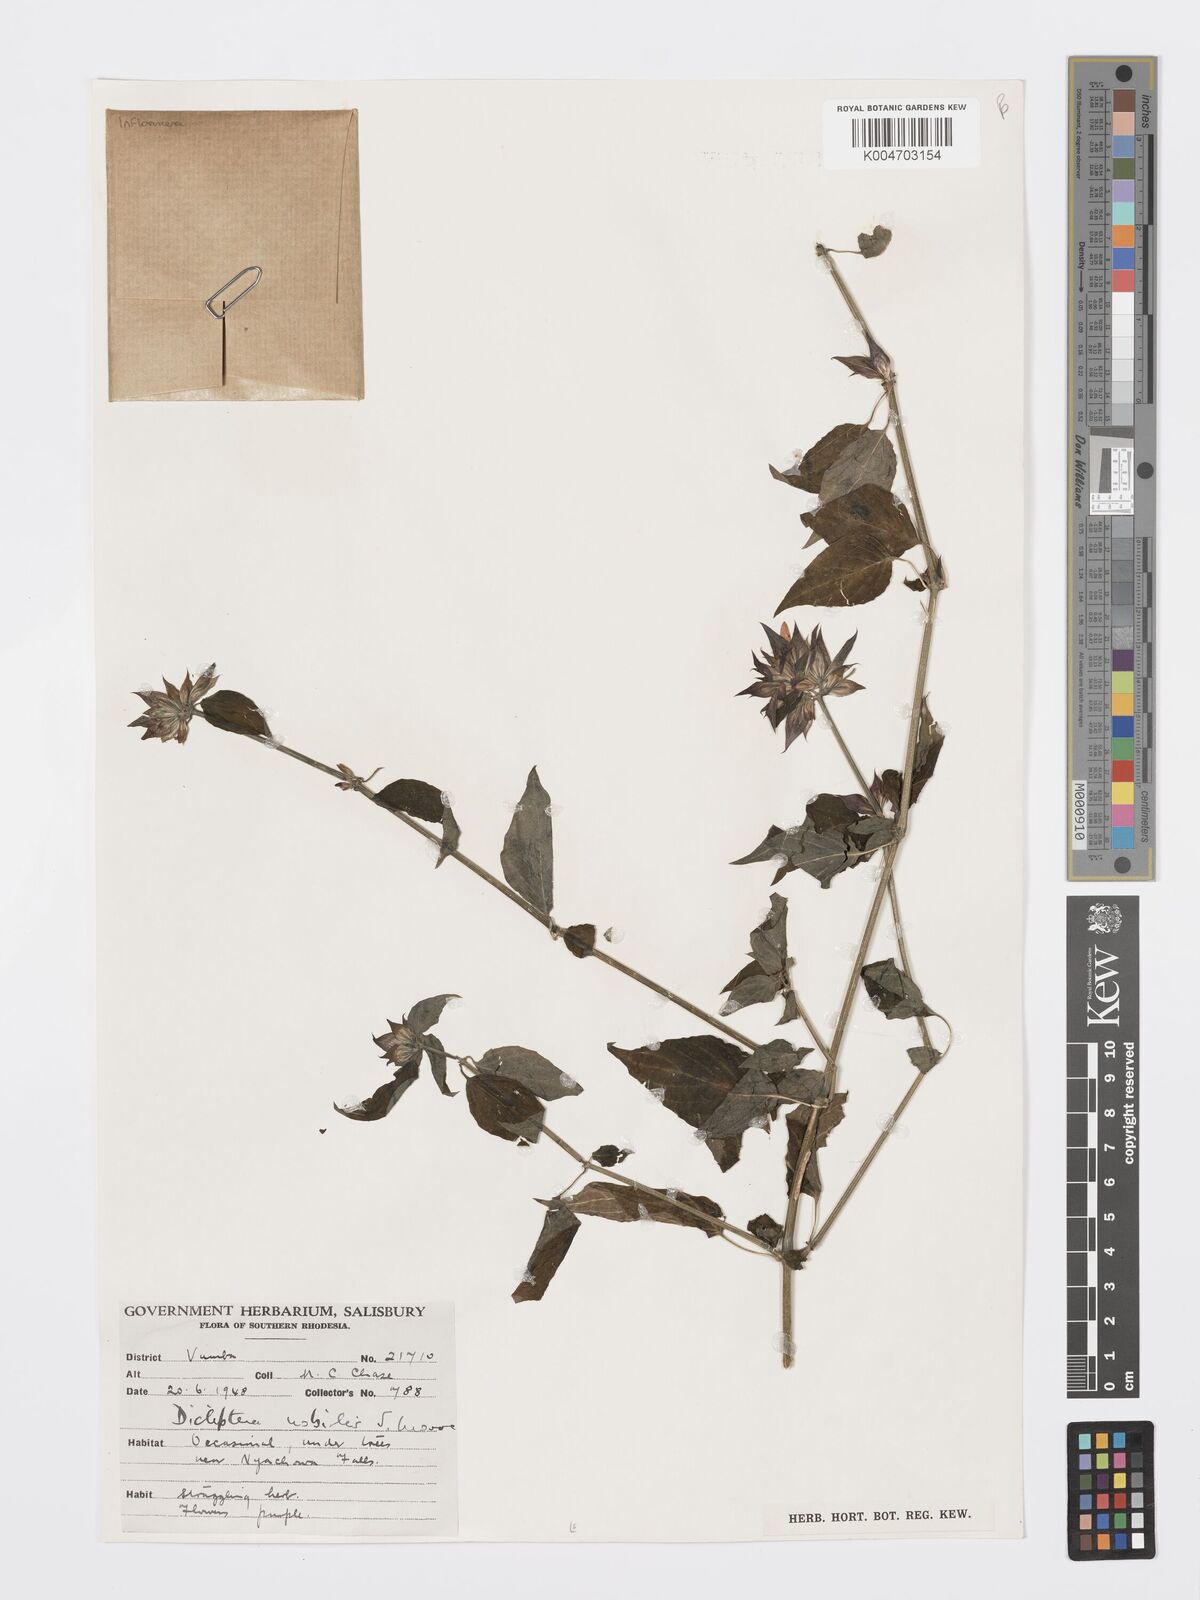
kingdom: Plantae
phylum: Tracheophyta
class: Magnoliopsida
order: Lamiales
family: Acanthaceae
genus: Dicliptera
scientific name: Dicliptera clinopodia
